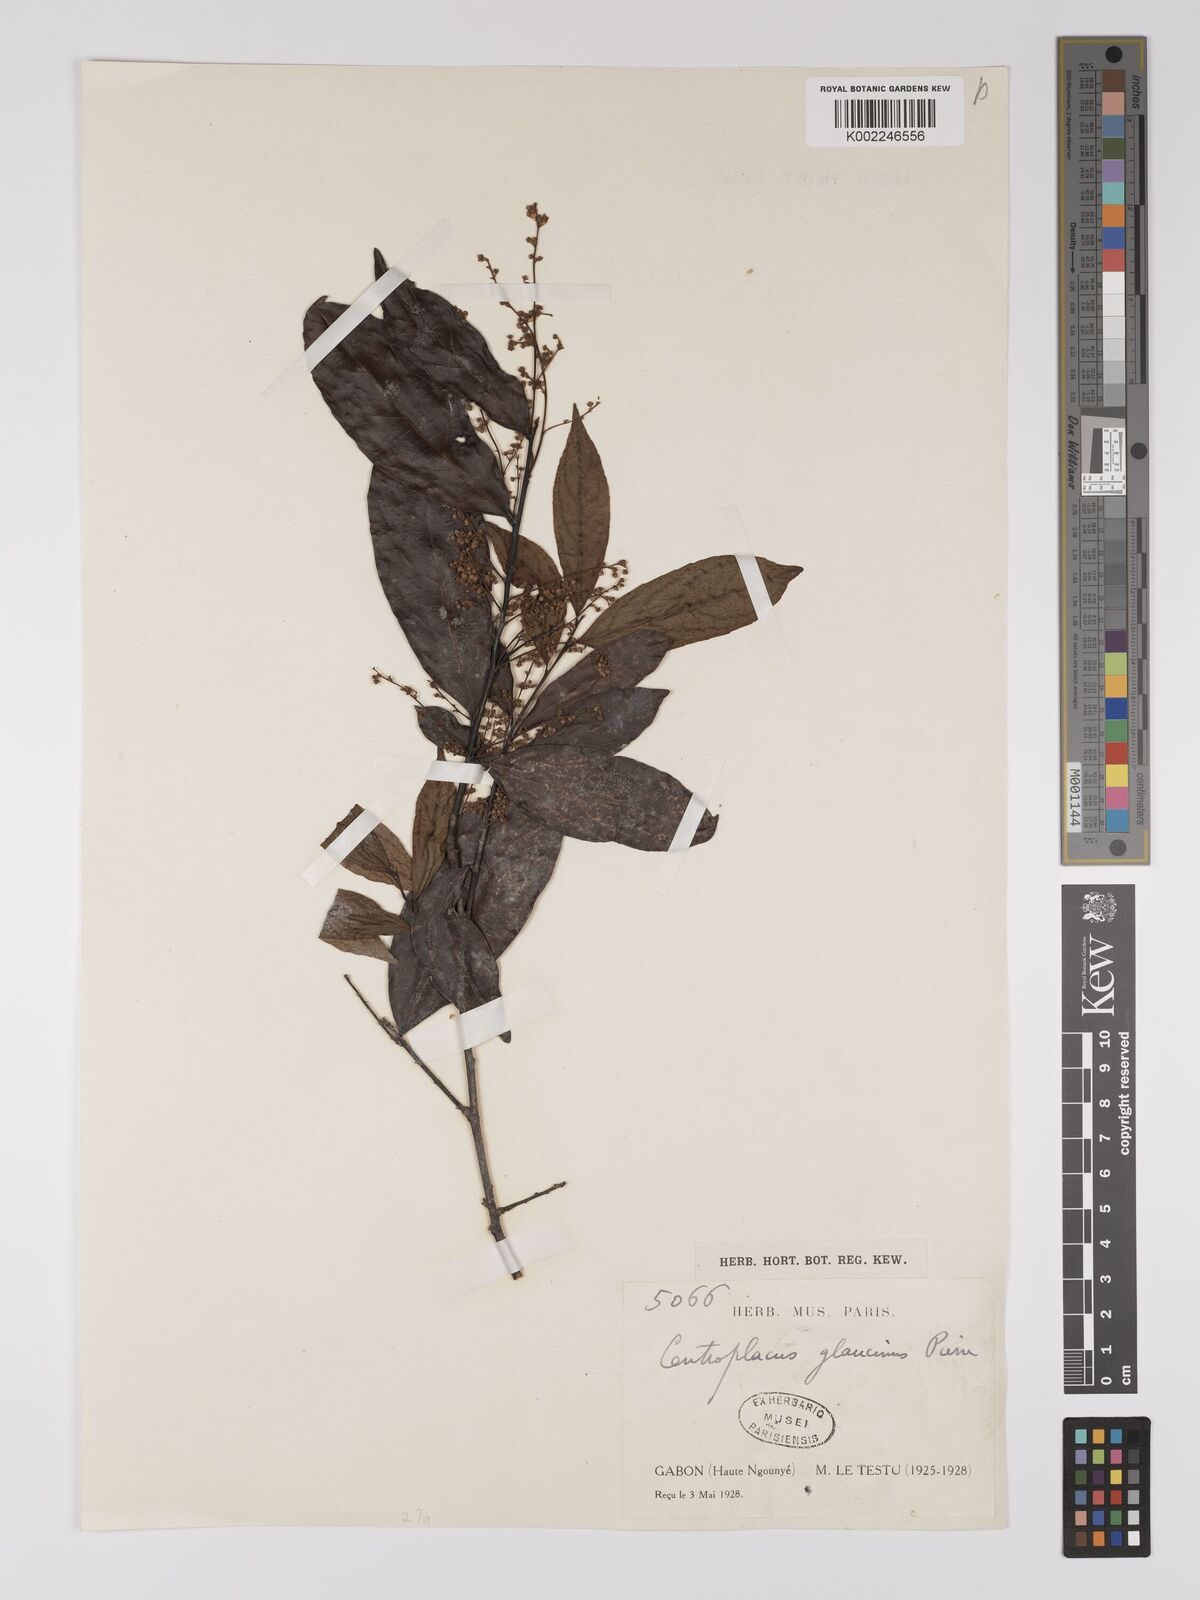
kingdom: Plantae
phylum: Tracheophyta
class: Magnoliopsida
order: Malpighiales
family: Centroplacaceae
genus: Centroplacus
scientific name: Centroplacus glaucinus
